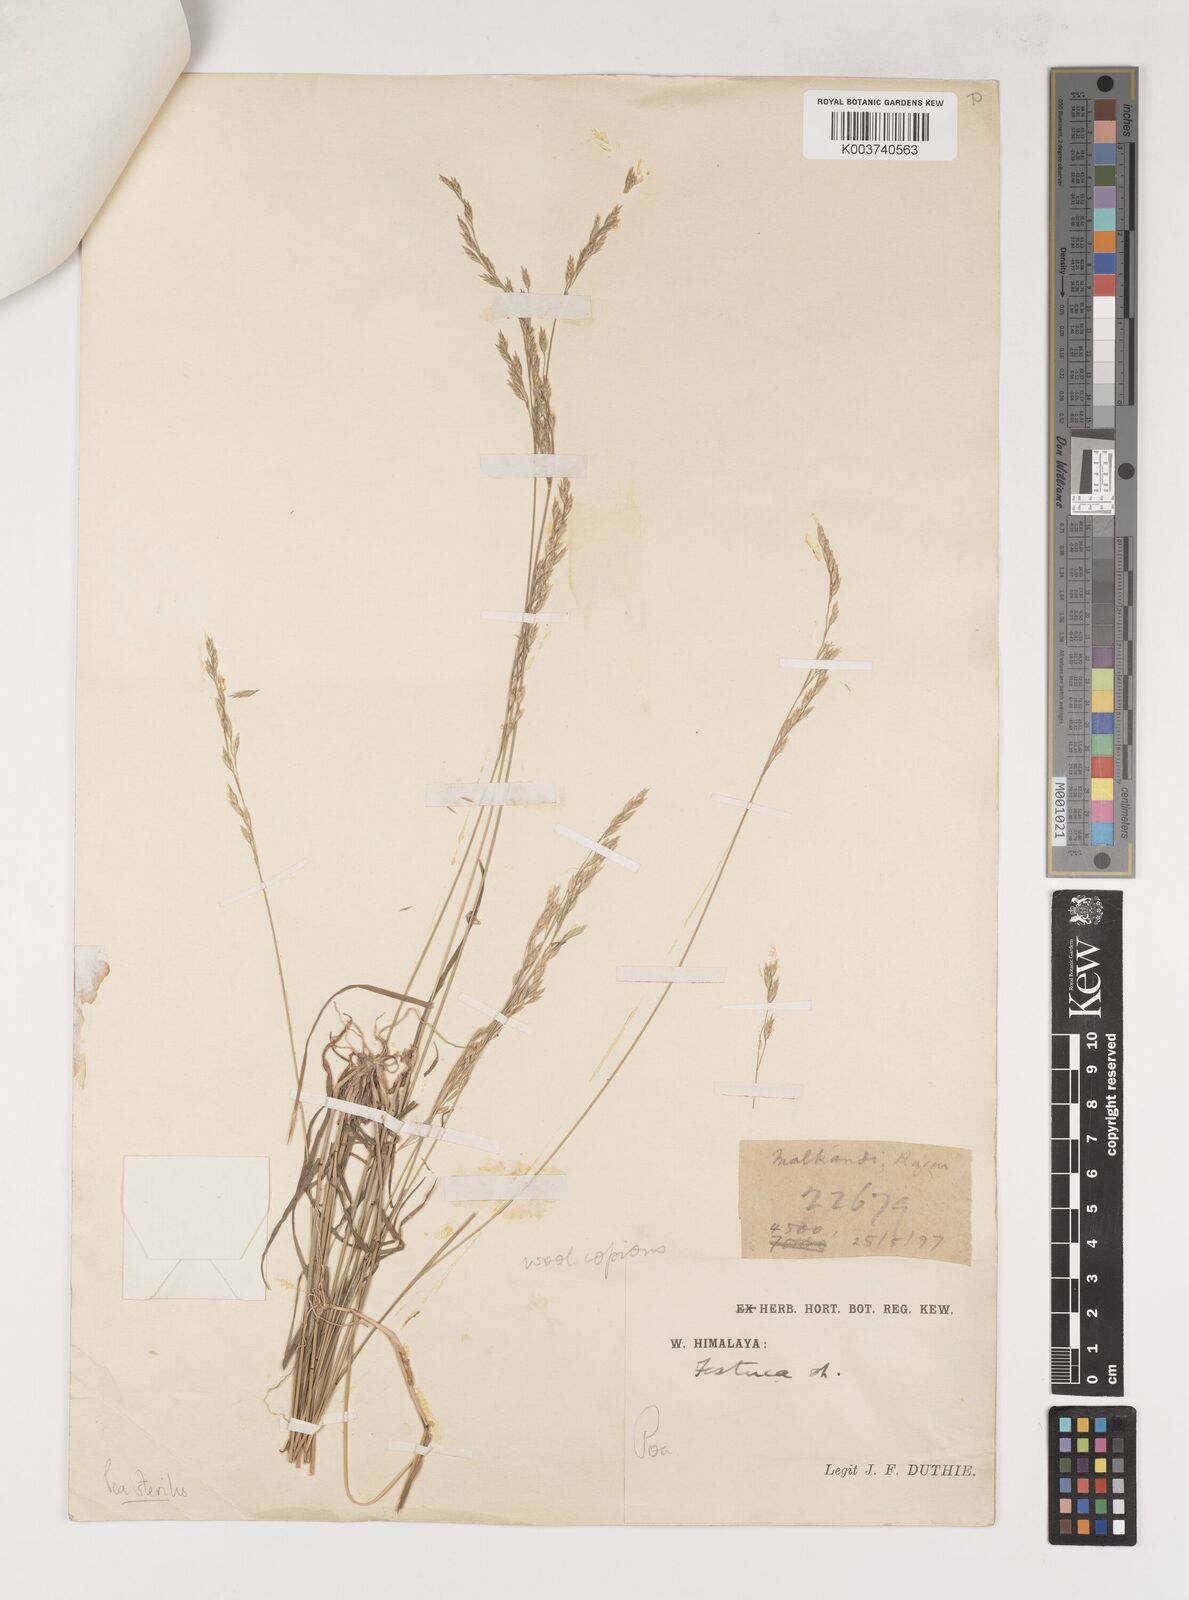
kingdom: Plantae
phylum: Tracheophyta
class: Liliopsida
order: Poales
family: Poaceae
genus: Poa
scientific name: Poa sterilis
